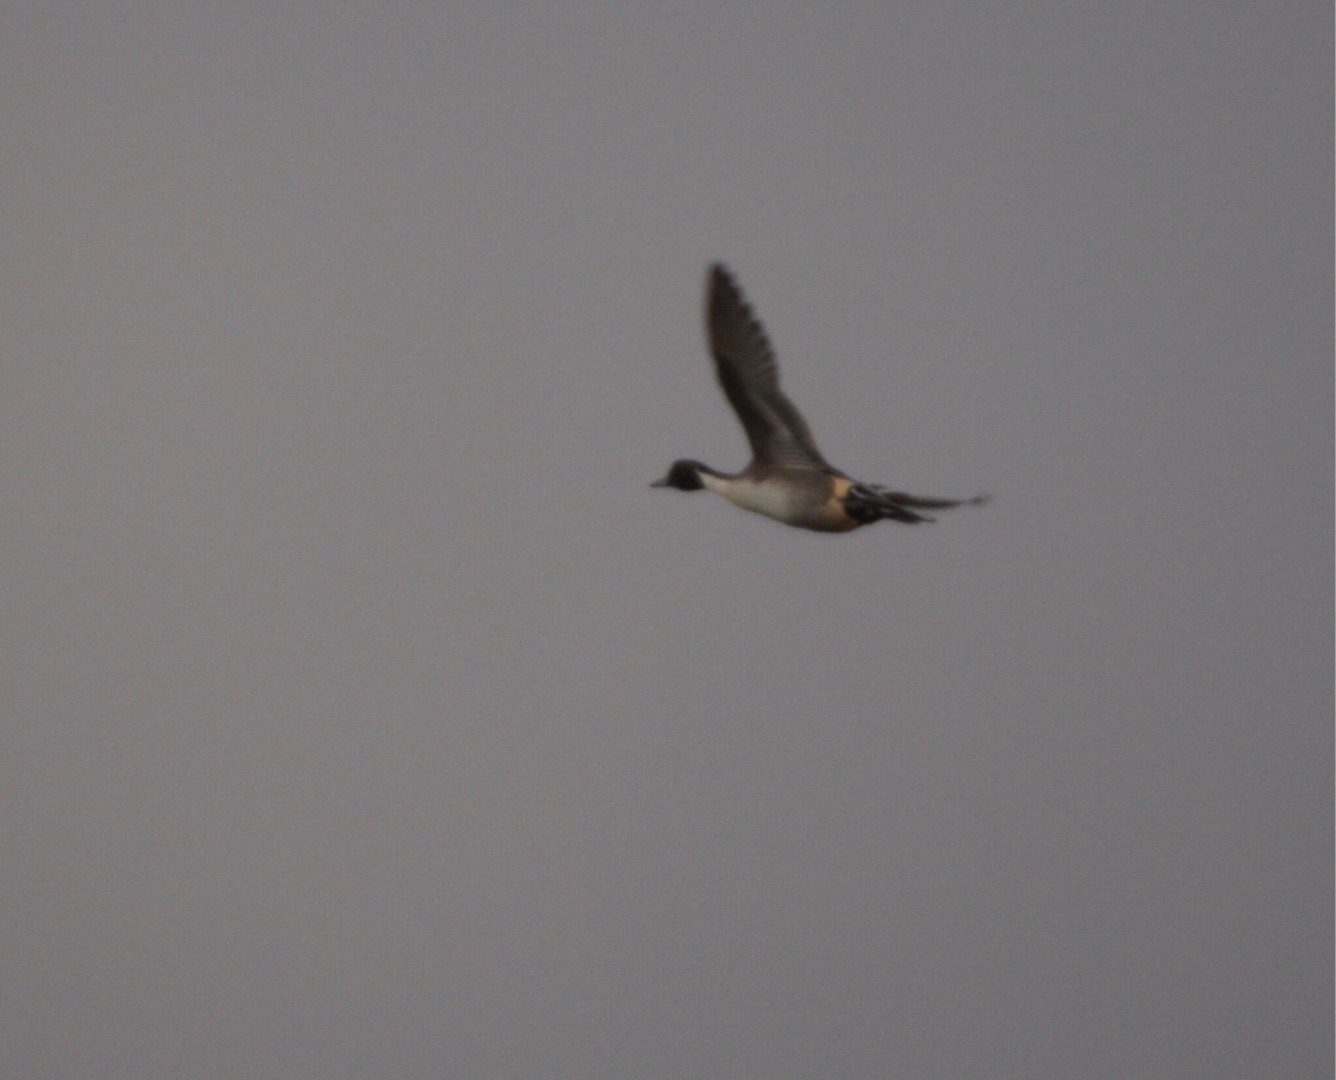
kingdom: Animalia
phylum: Chordata
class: Aves
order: Anseriformes
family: Anatidae
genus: Anas
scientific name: Anas acuta
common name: Spidsand
